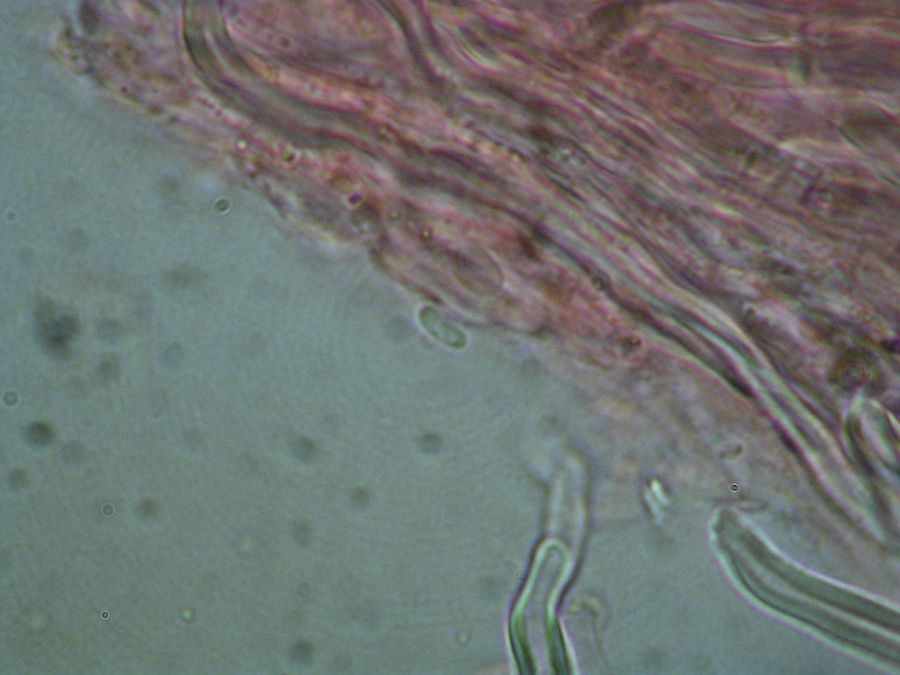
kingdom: Fungi
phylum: Basidiomycota
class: Agaricomycetes
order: Polyporales
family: Fomitopsidaceae
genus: Daedalea
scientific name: Daedalea xantha
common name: gul sejporesvamp
